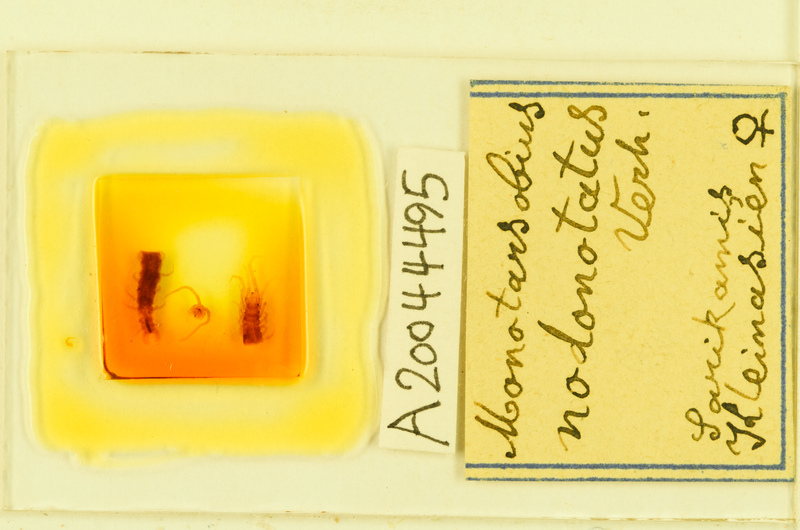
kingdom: Animalia
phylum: Arthropoda
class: Chilopoda
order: Lithobiomorpha
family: Lithobiidae
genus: Lithobius
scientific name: Lithobius ferganensis
